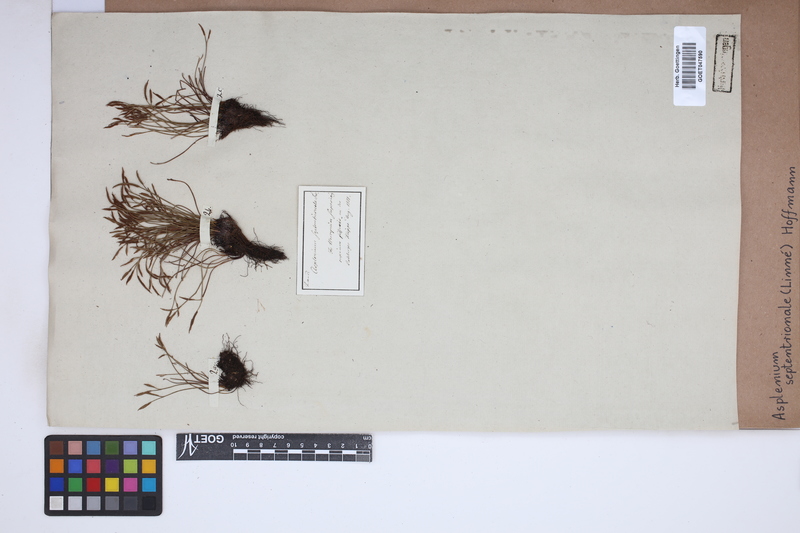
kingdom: Plantae
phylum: Tracheophyta
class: Polypodiopsida
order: Polypodiales
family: Aspleniaceae
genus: Asplenium
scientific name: Asplenium septentrionale
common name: Forked spleenwort
